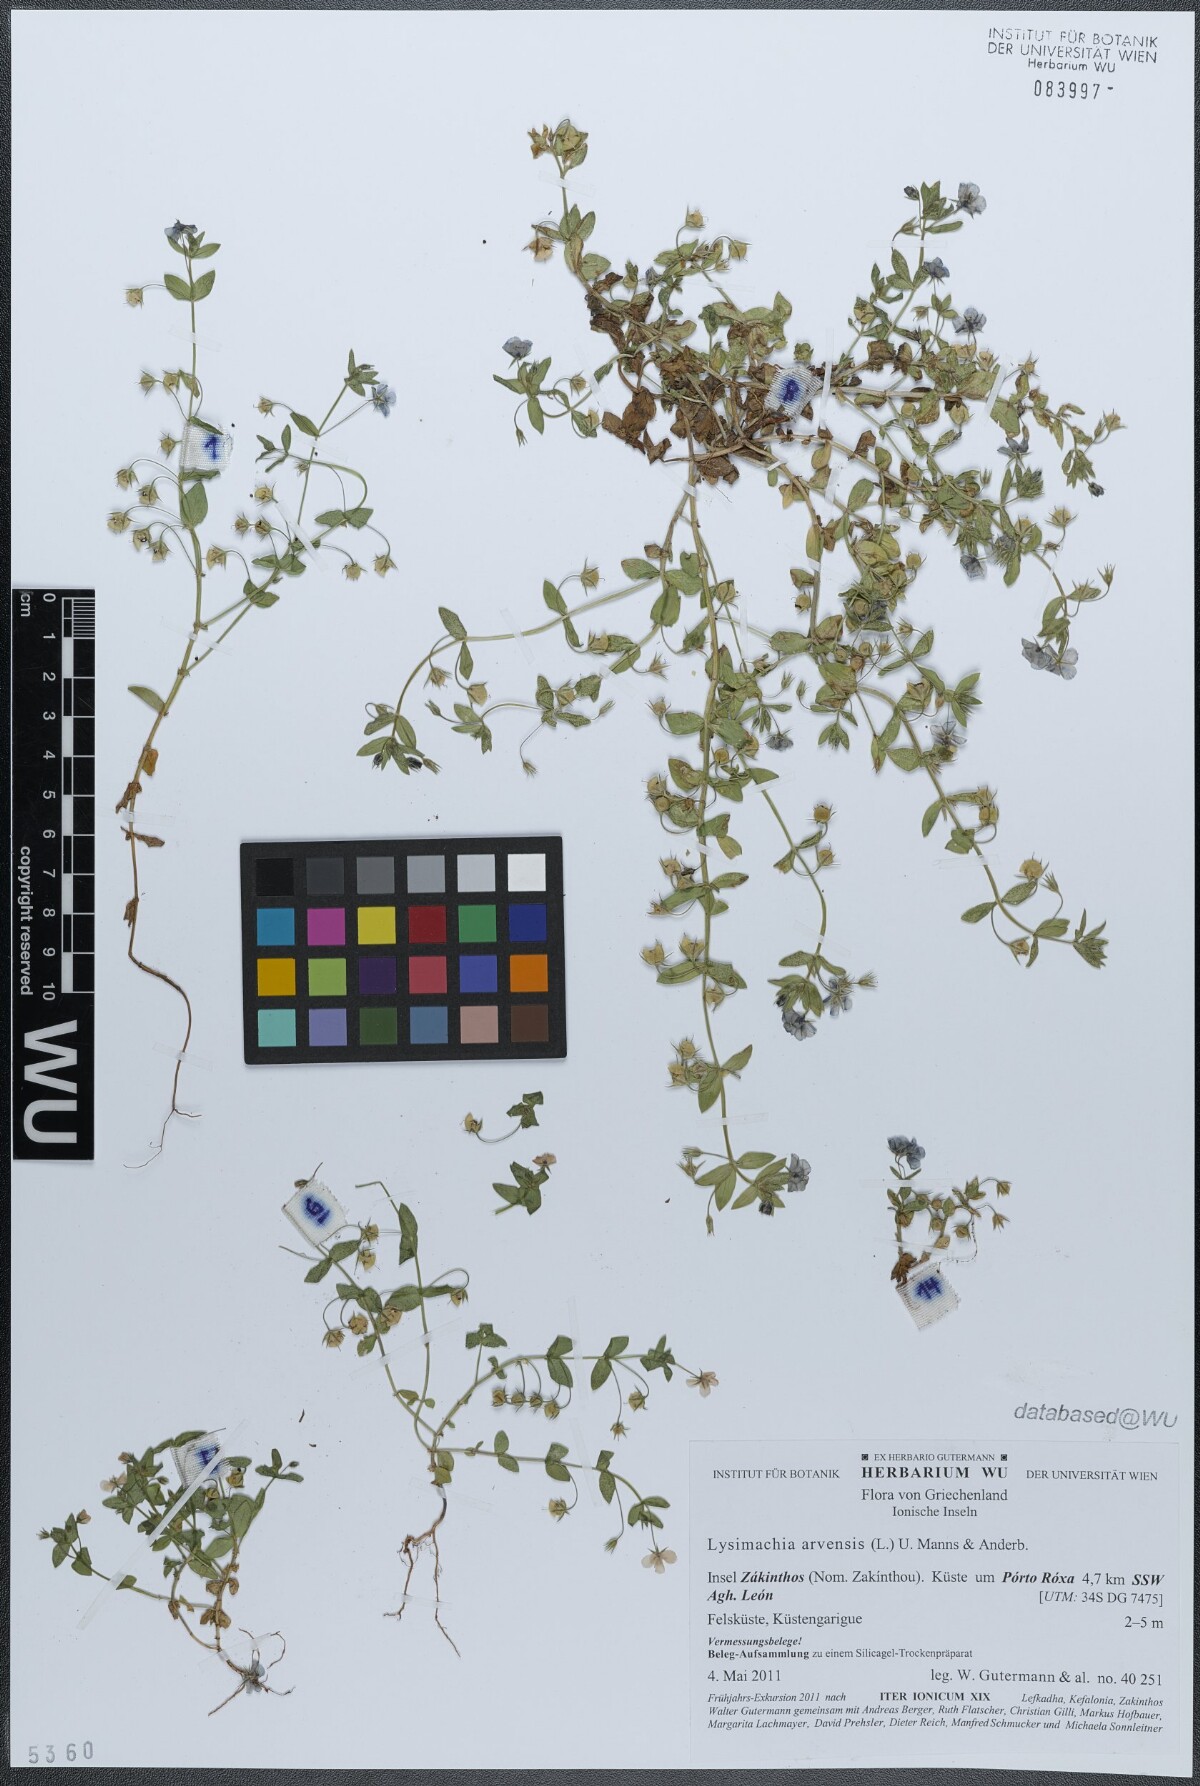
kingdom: Plantae
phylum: Tracheophyta
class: Magnoliopsida
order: Ericales
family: Primulaceae
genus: Lysimachia
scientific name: Lysimachia arvensis
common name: Scarlet pimpernel
